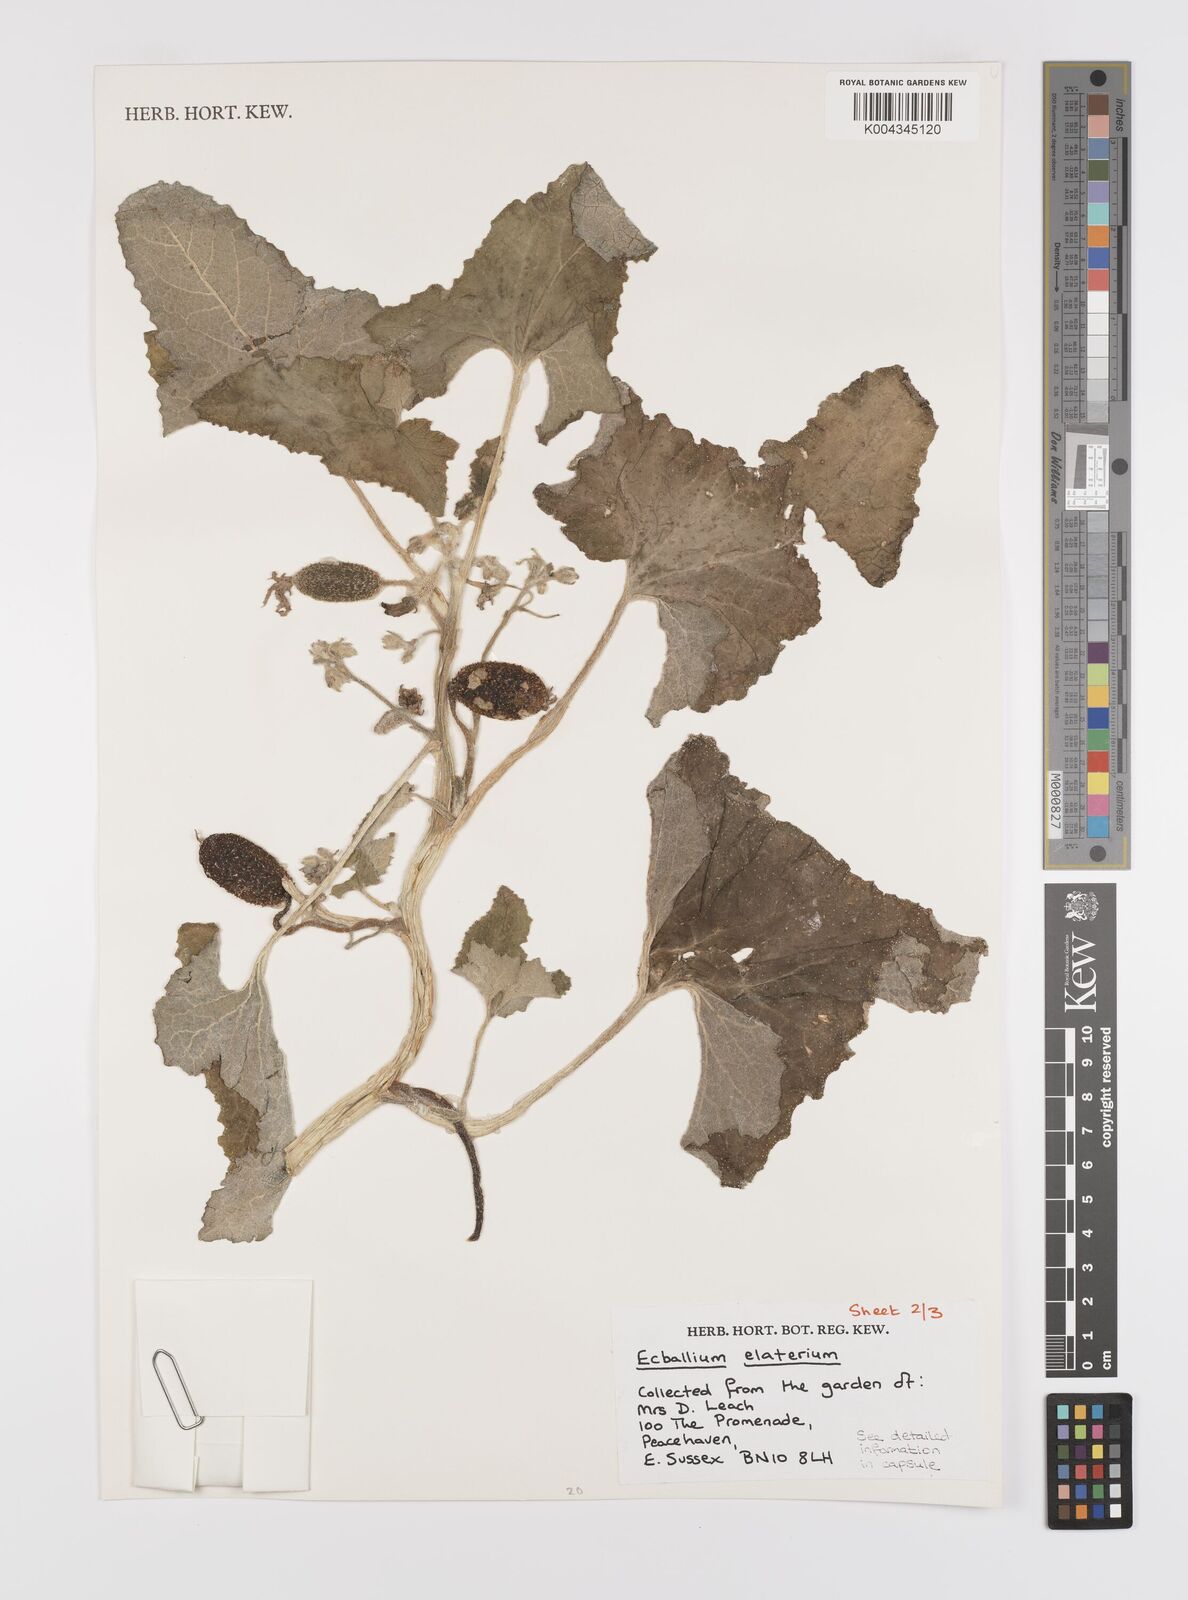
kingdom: Plantae
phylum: Tracheophyta
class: Magnoliopsida
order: Cucurbitales
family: Cucurbitaceae
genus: Ecballium
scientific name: Ecballium elaterium
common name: Squirting cucumber
